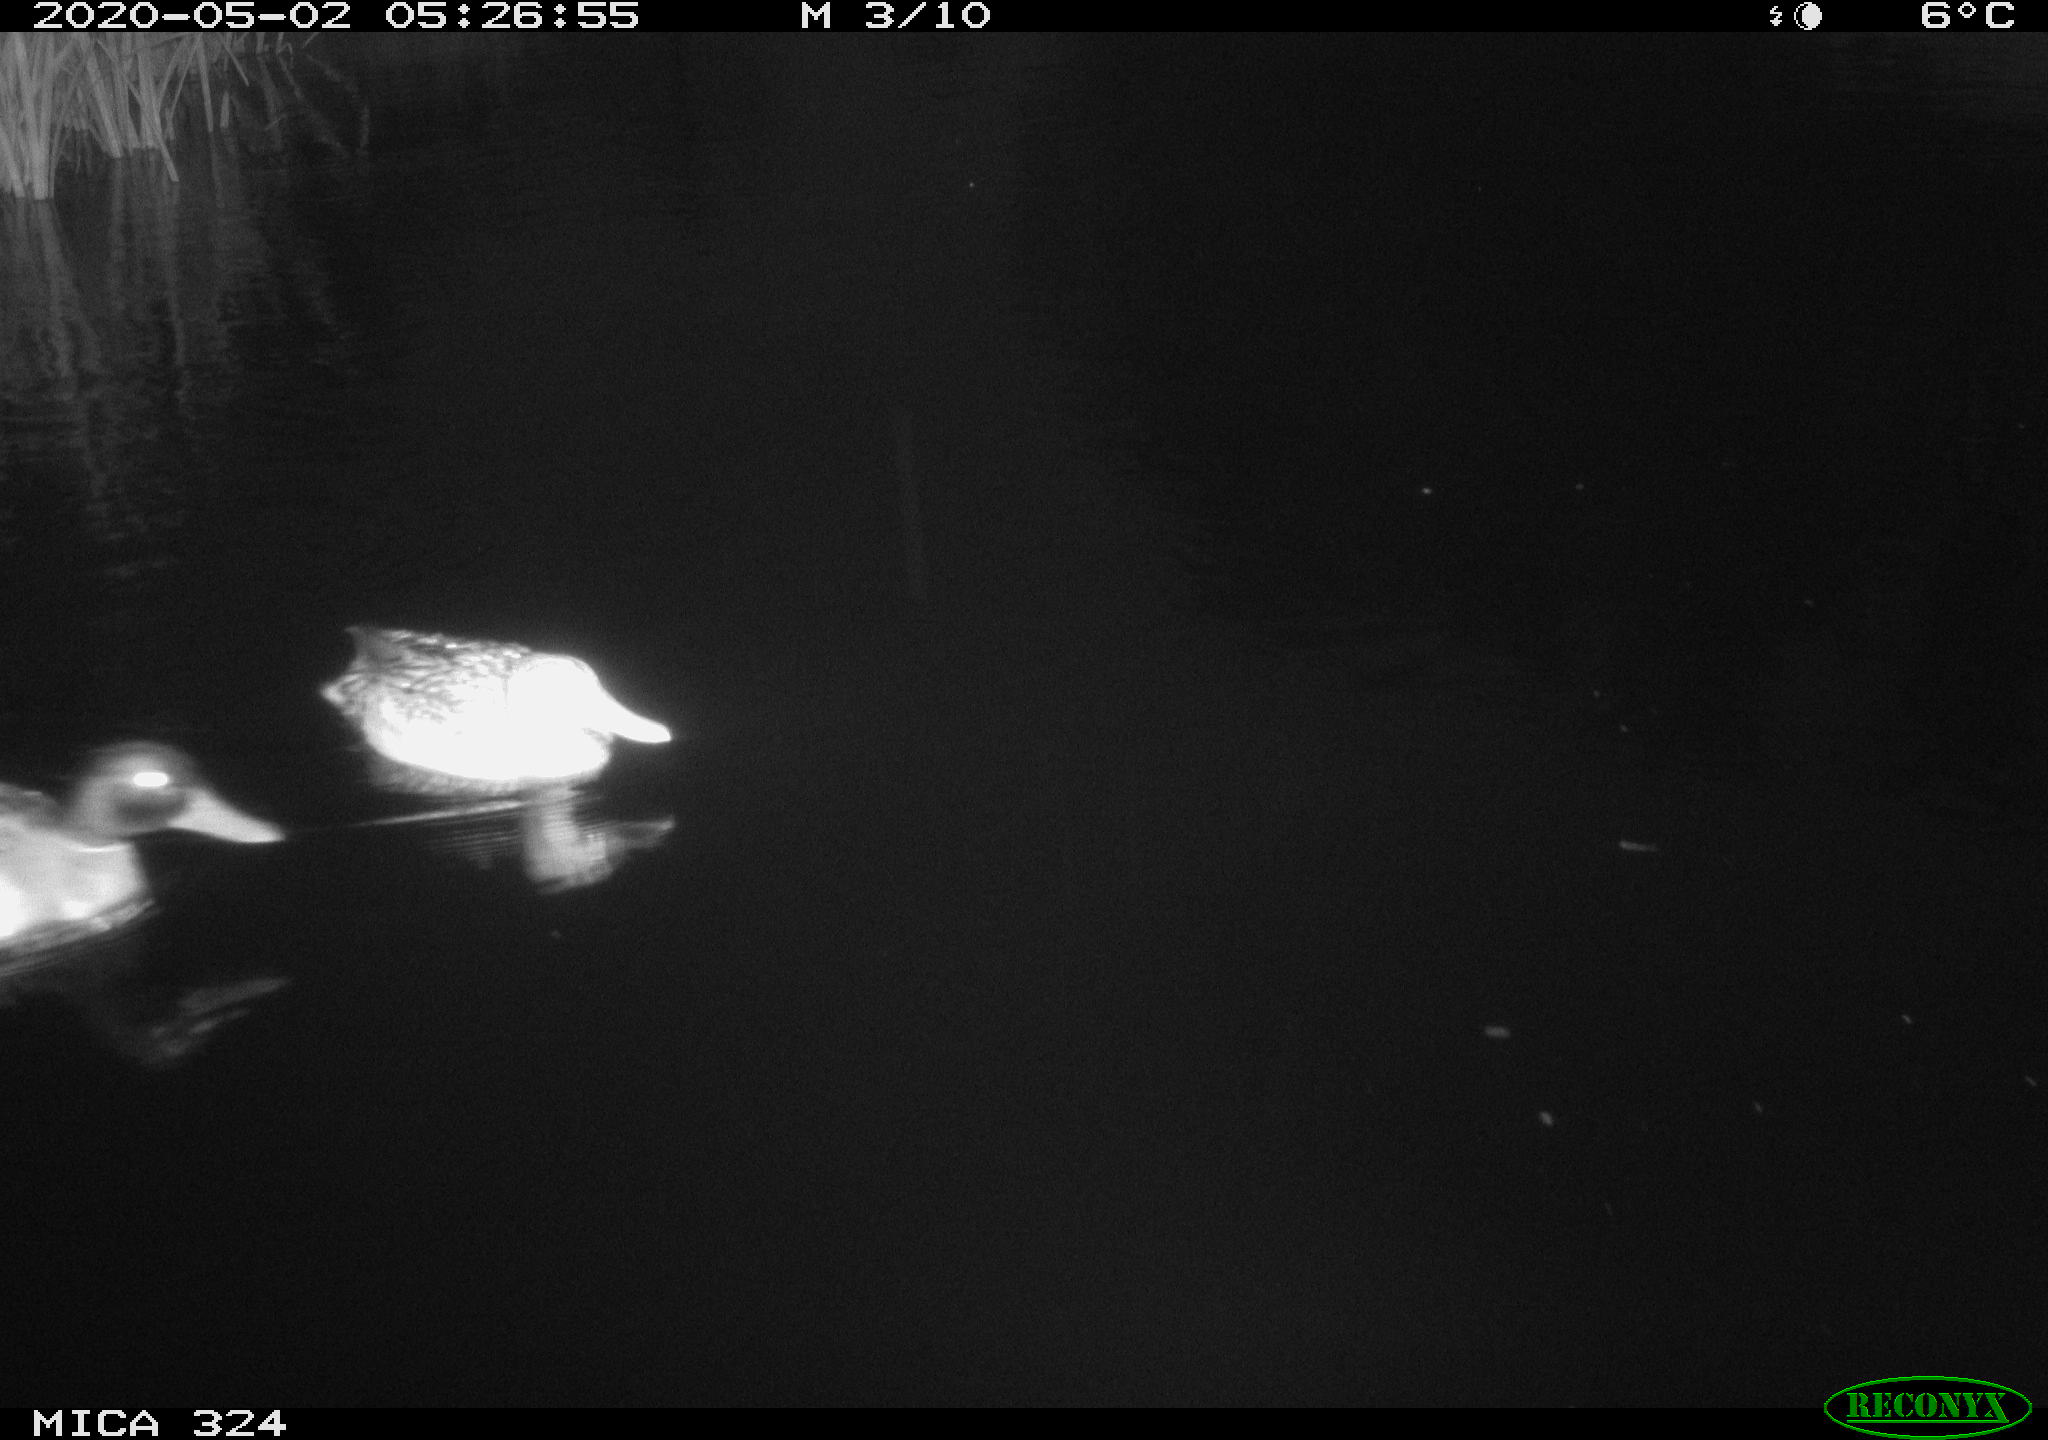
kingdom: Animalia
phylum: Chordata
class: Aves
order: Anseriformes
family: Anatidae
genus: Anas
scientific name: Anas platyrhynchos
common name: Mallard
